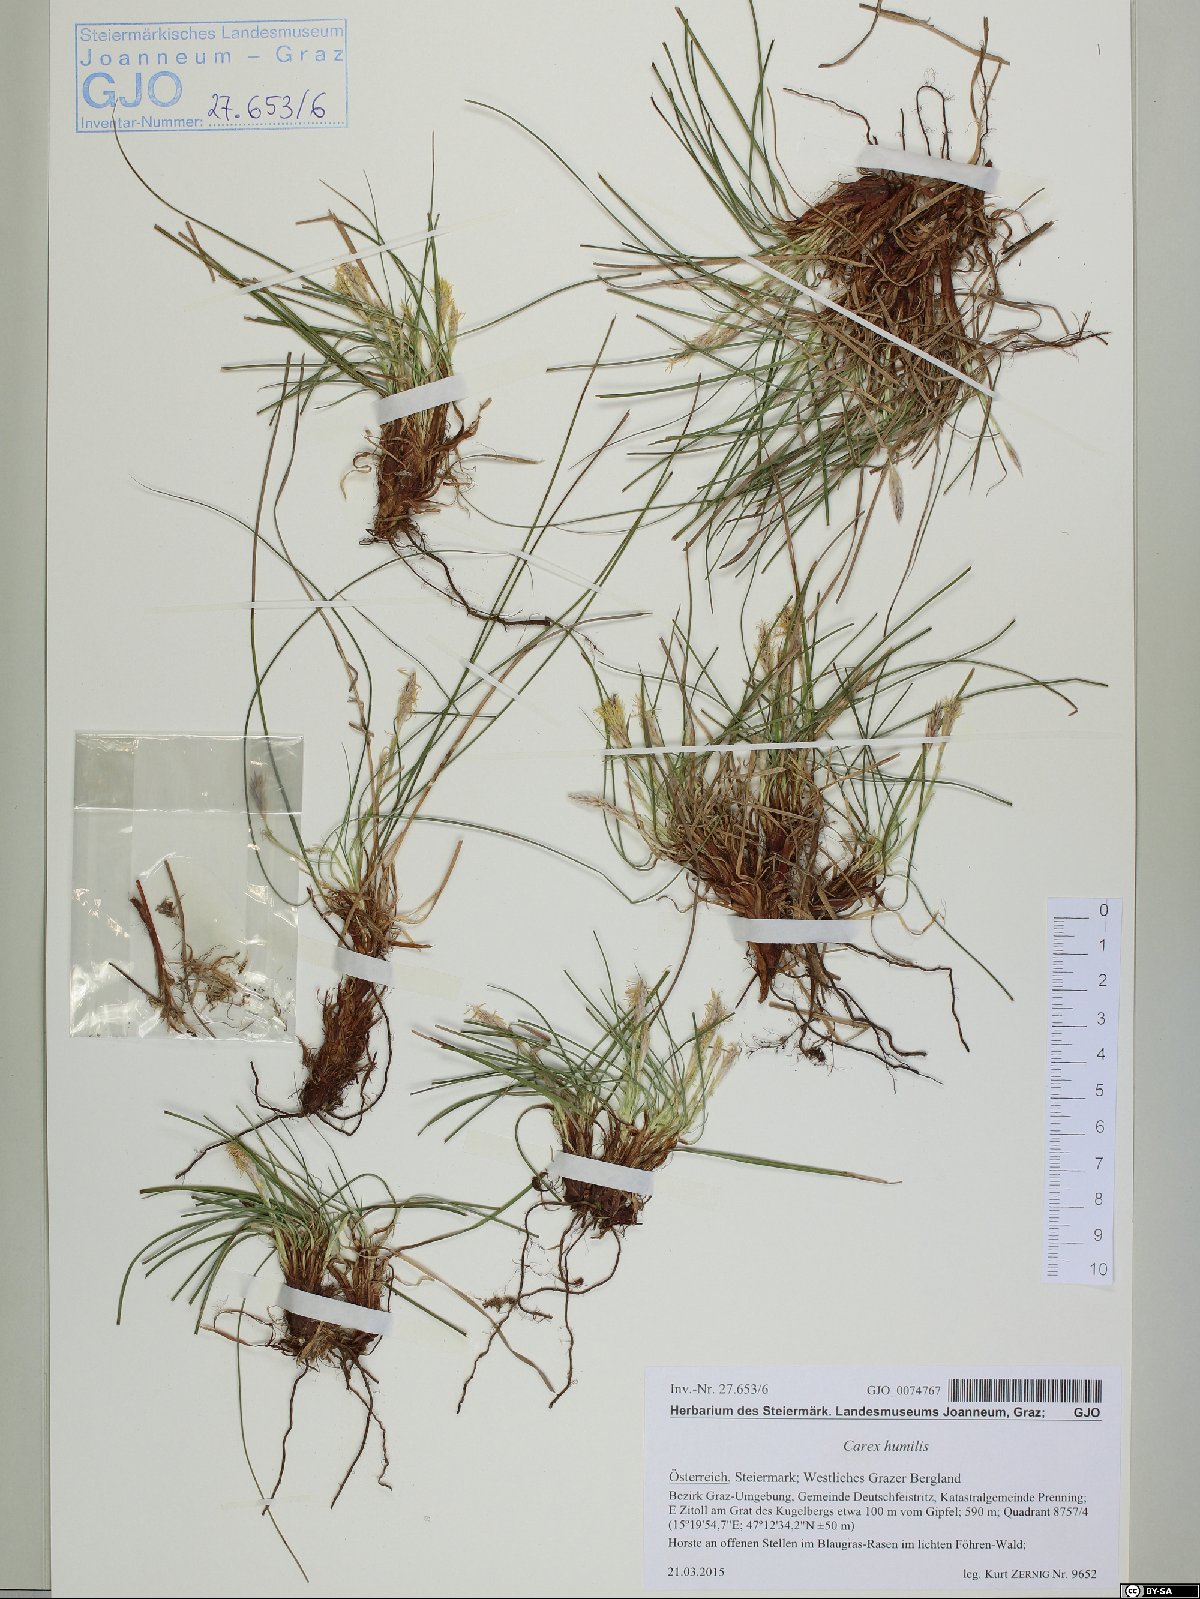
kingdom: Plantae
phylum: Tracheophyta
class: Liliopsida
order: Poales
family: Cyperaceae
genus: Carex
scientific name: Carex humilis
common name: Dwarf sedge
